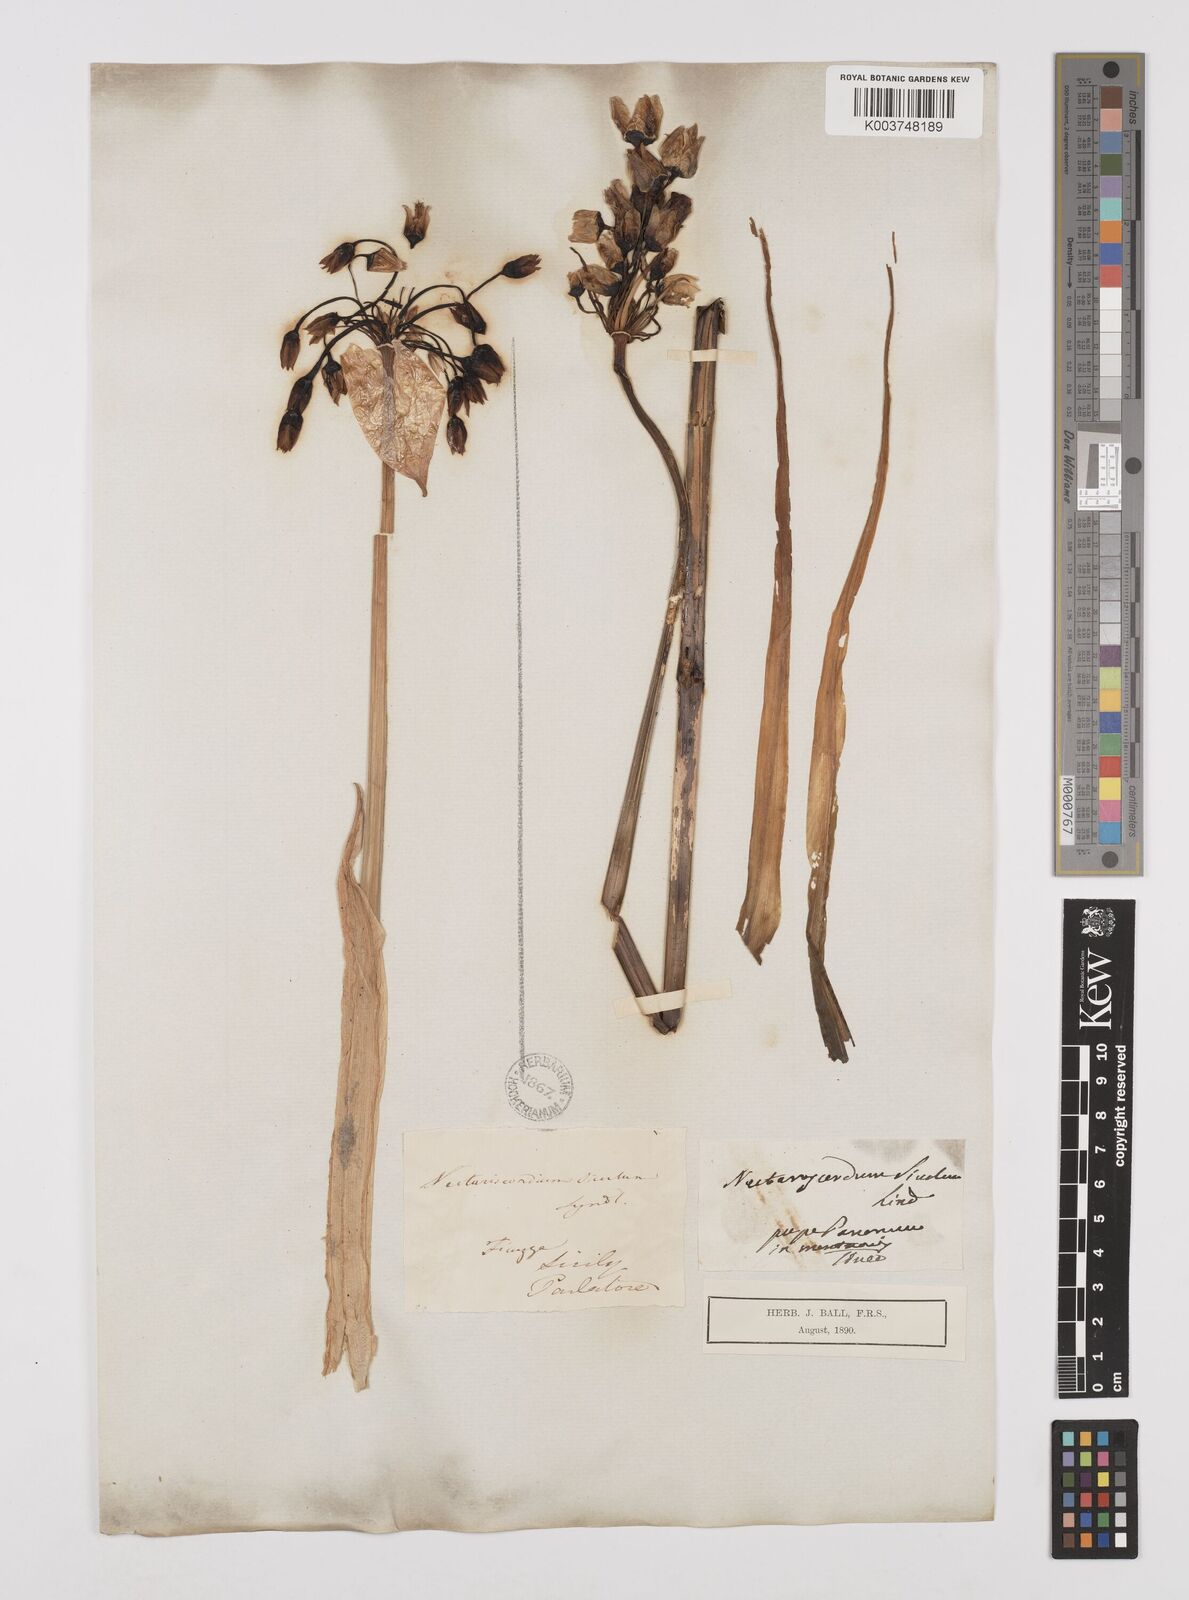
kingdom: Plantae
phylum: Tracheophyta
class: Liliopsida
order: Asparagales
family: Amaryllidaceae
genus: Allium
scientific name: Allium siculum
